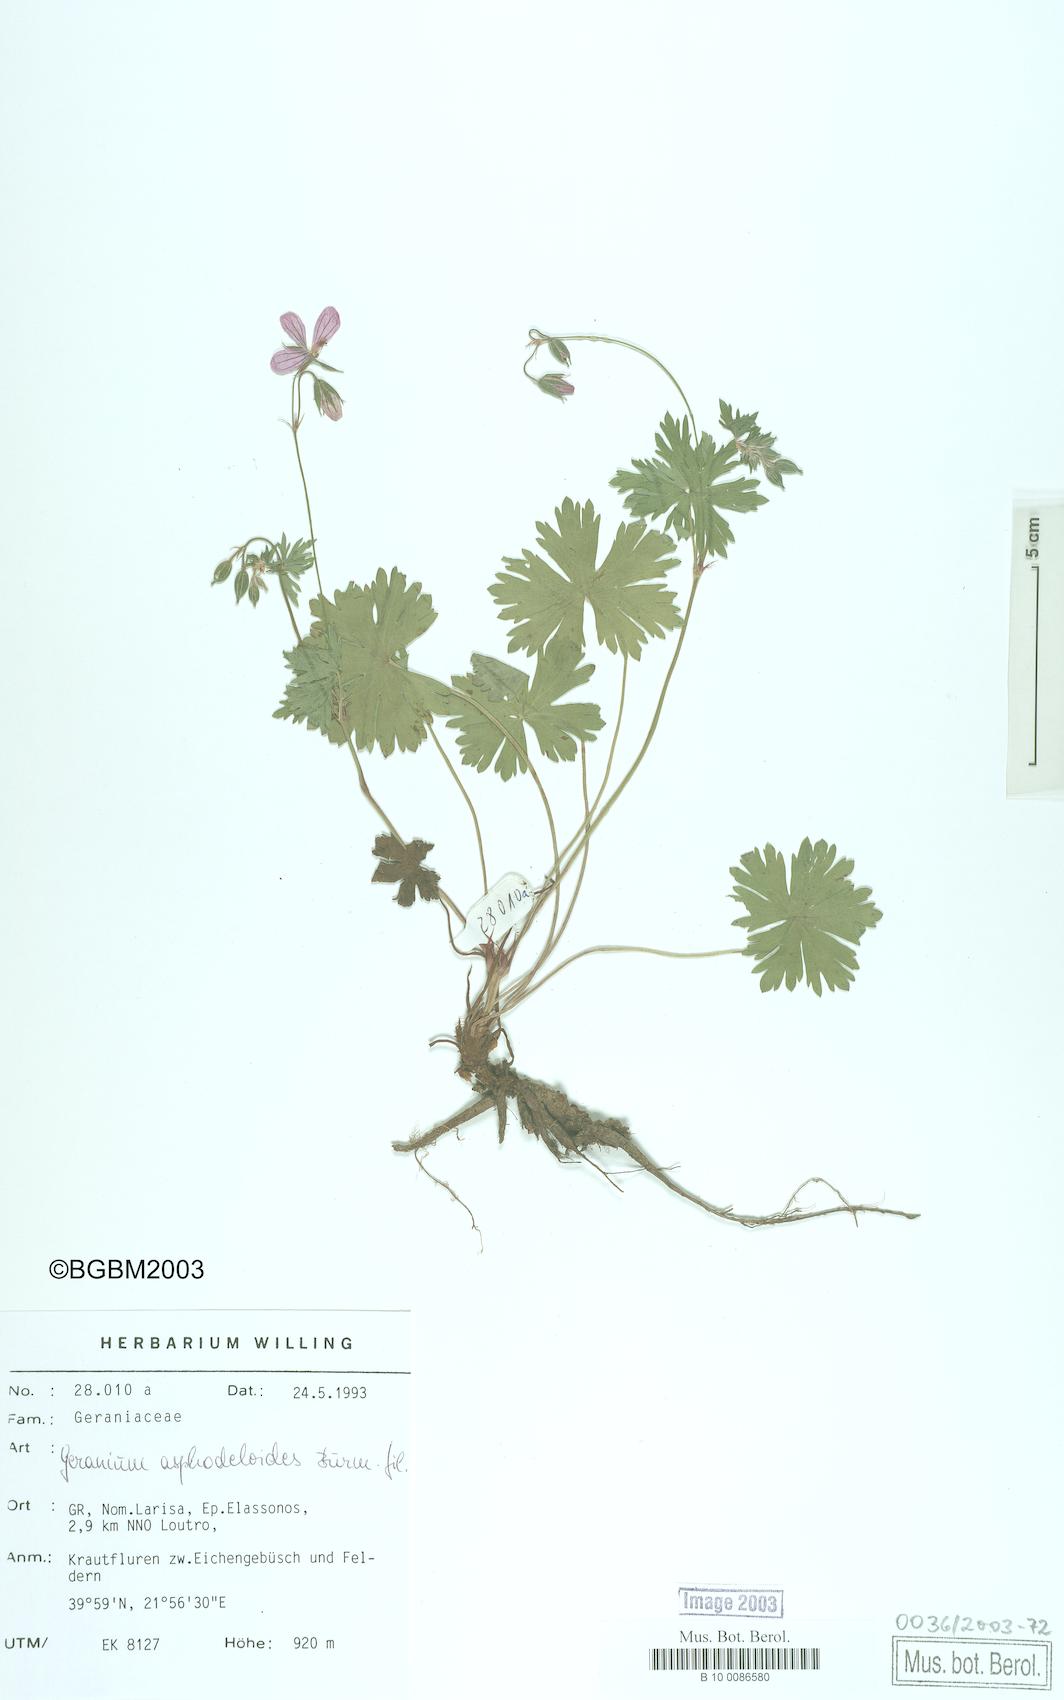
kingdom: Plantae
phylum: Tracheophyta
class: Magnoliopsida
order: Geraniales
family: Geraniaceae
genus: Geranium
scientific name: Geranium asphodeloides
